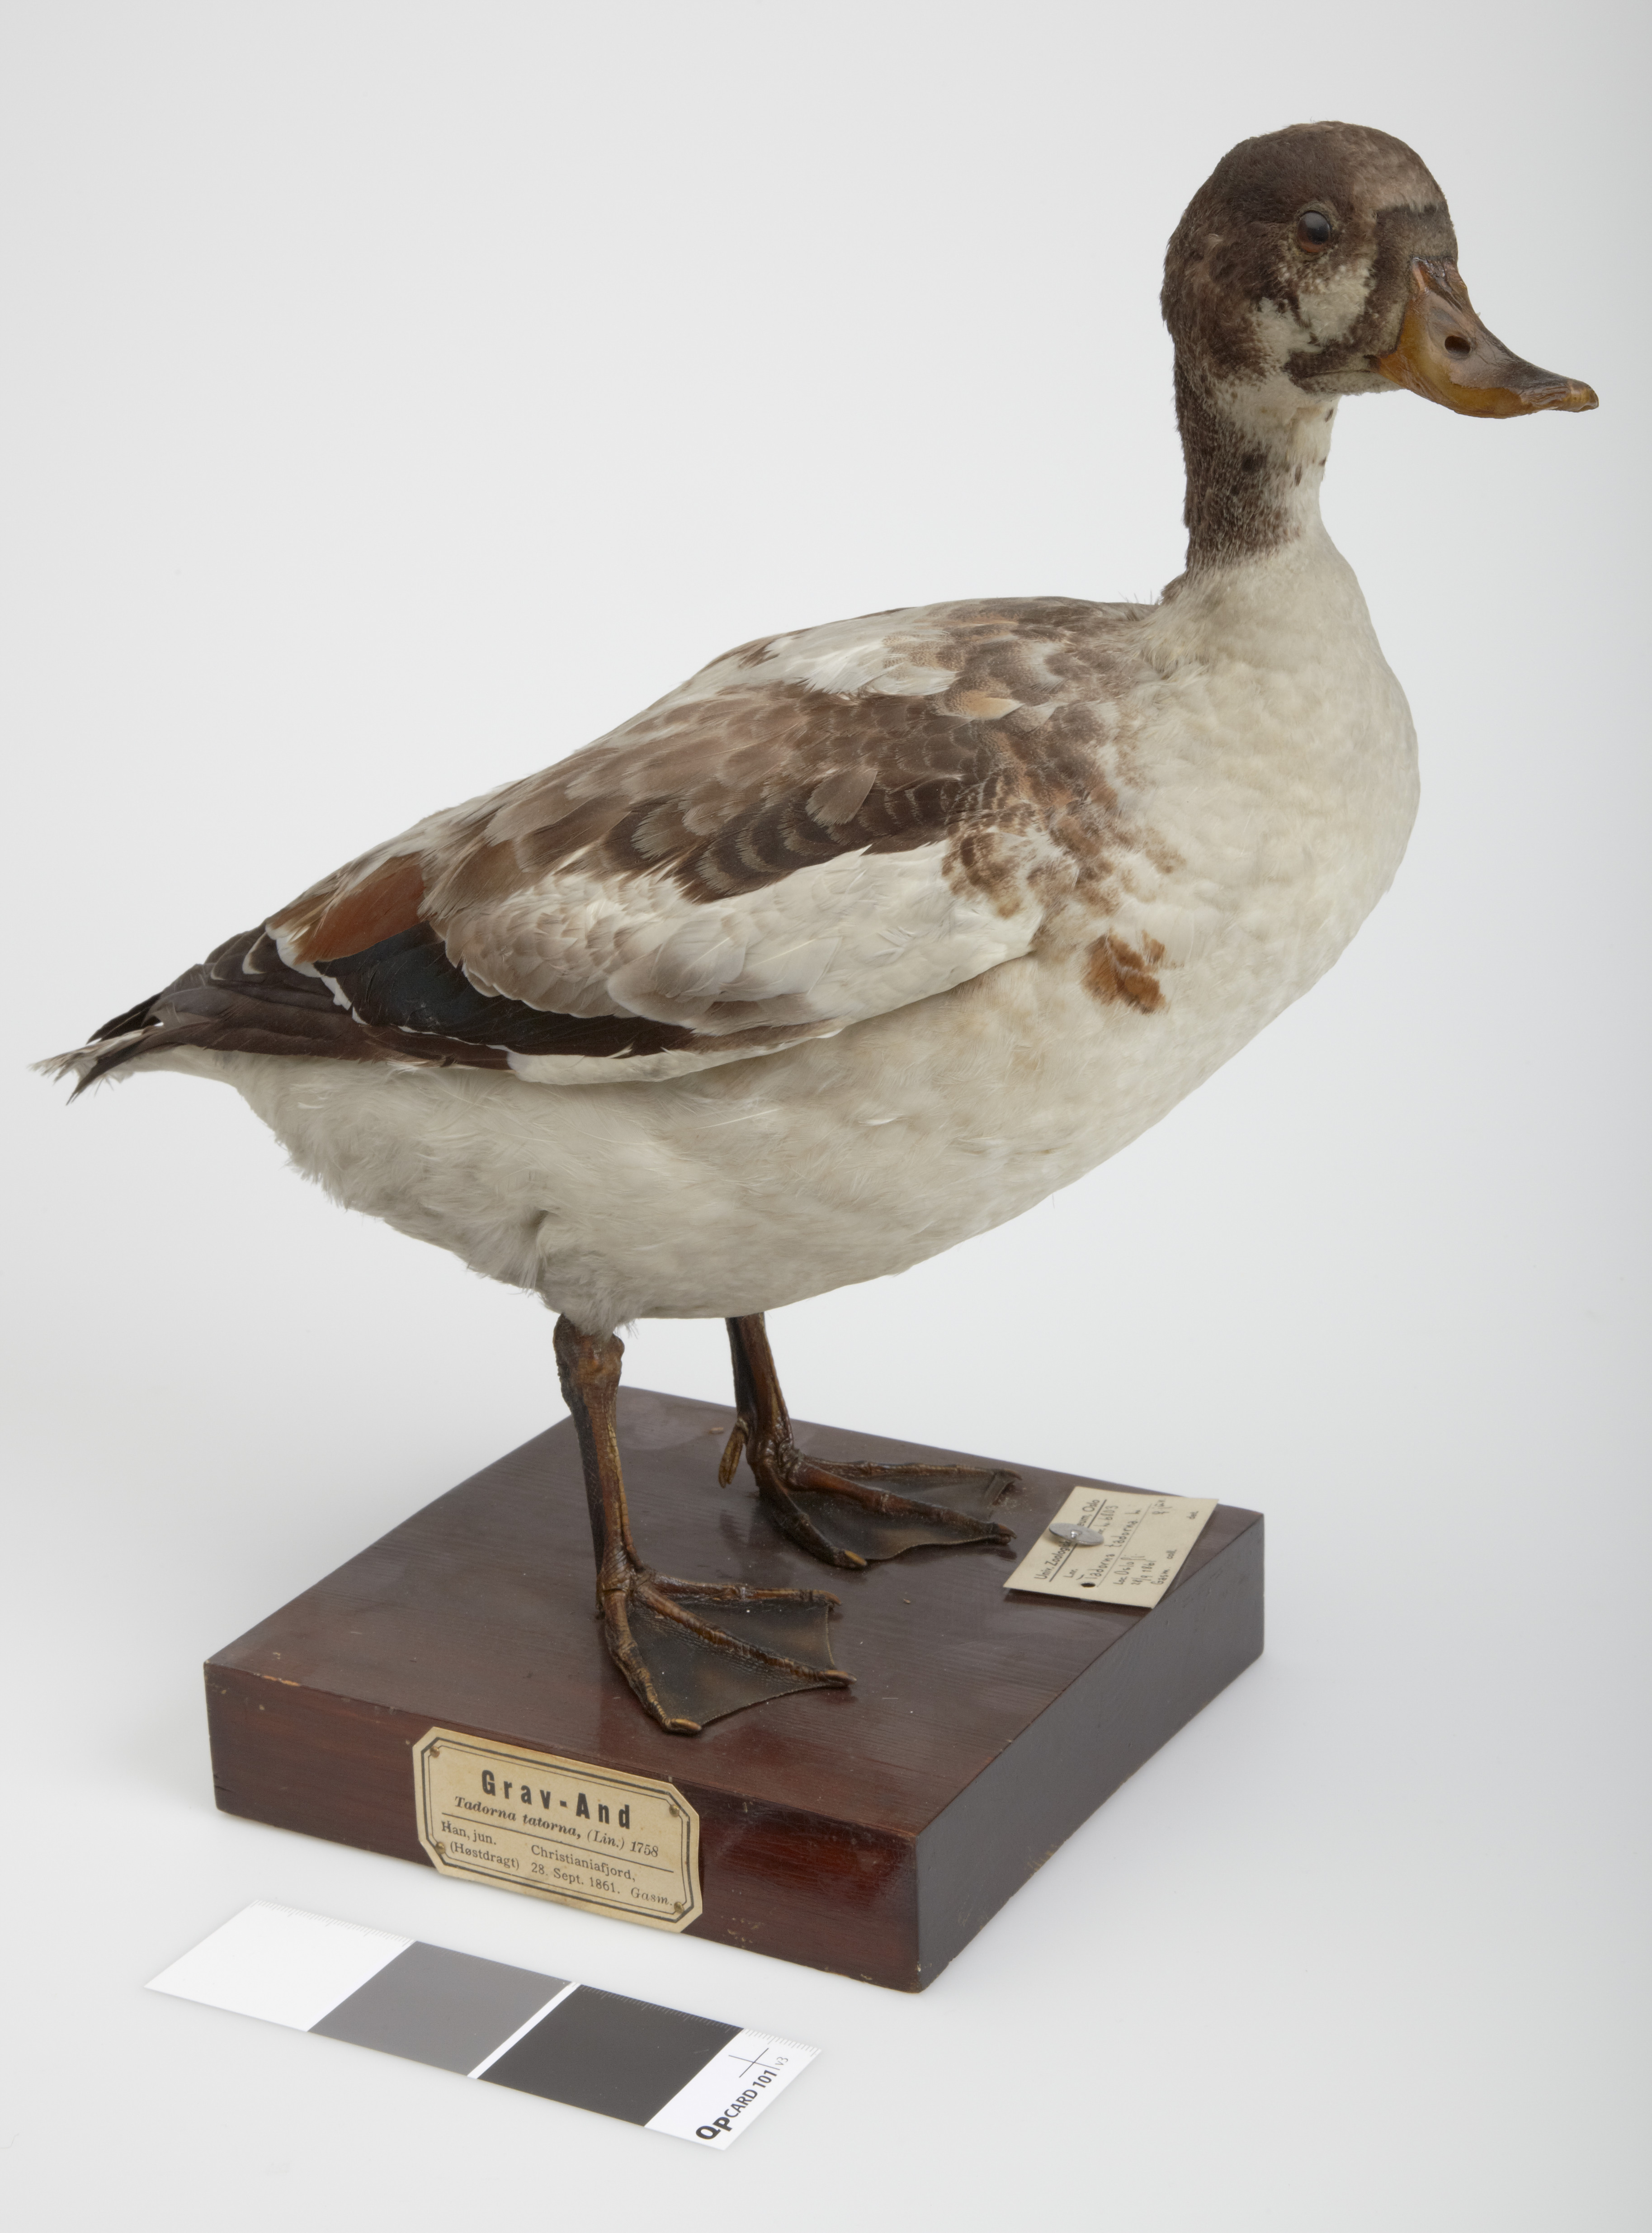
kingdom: Animalia
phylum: Chordata
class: Aves
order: Anseriformes
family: Anatidae
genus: Tadorna
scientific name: Tadorna tadorna
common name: Common shelduck
